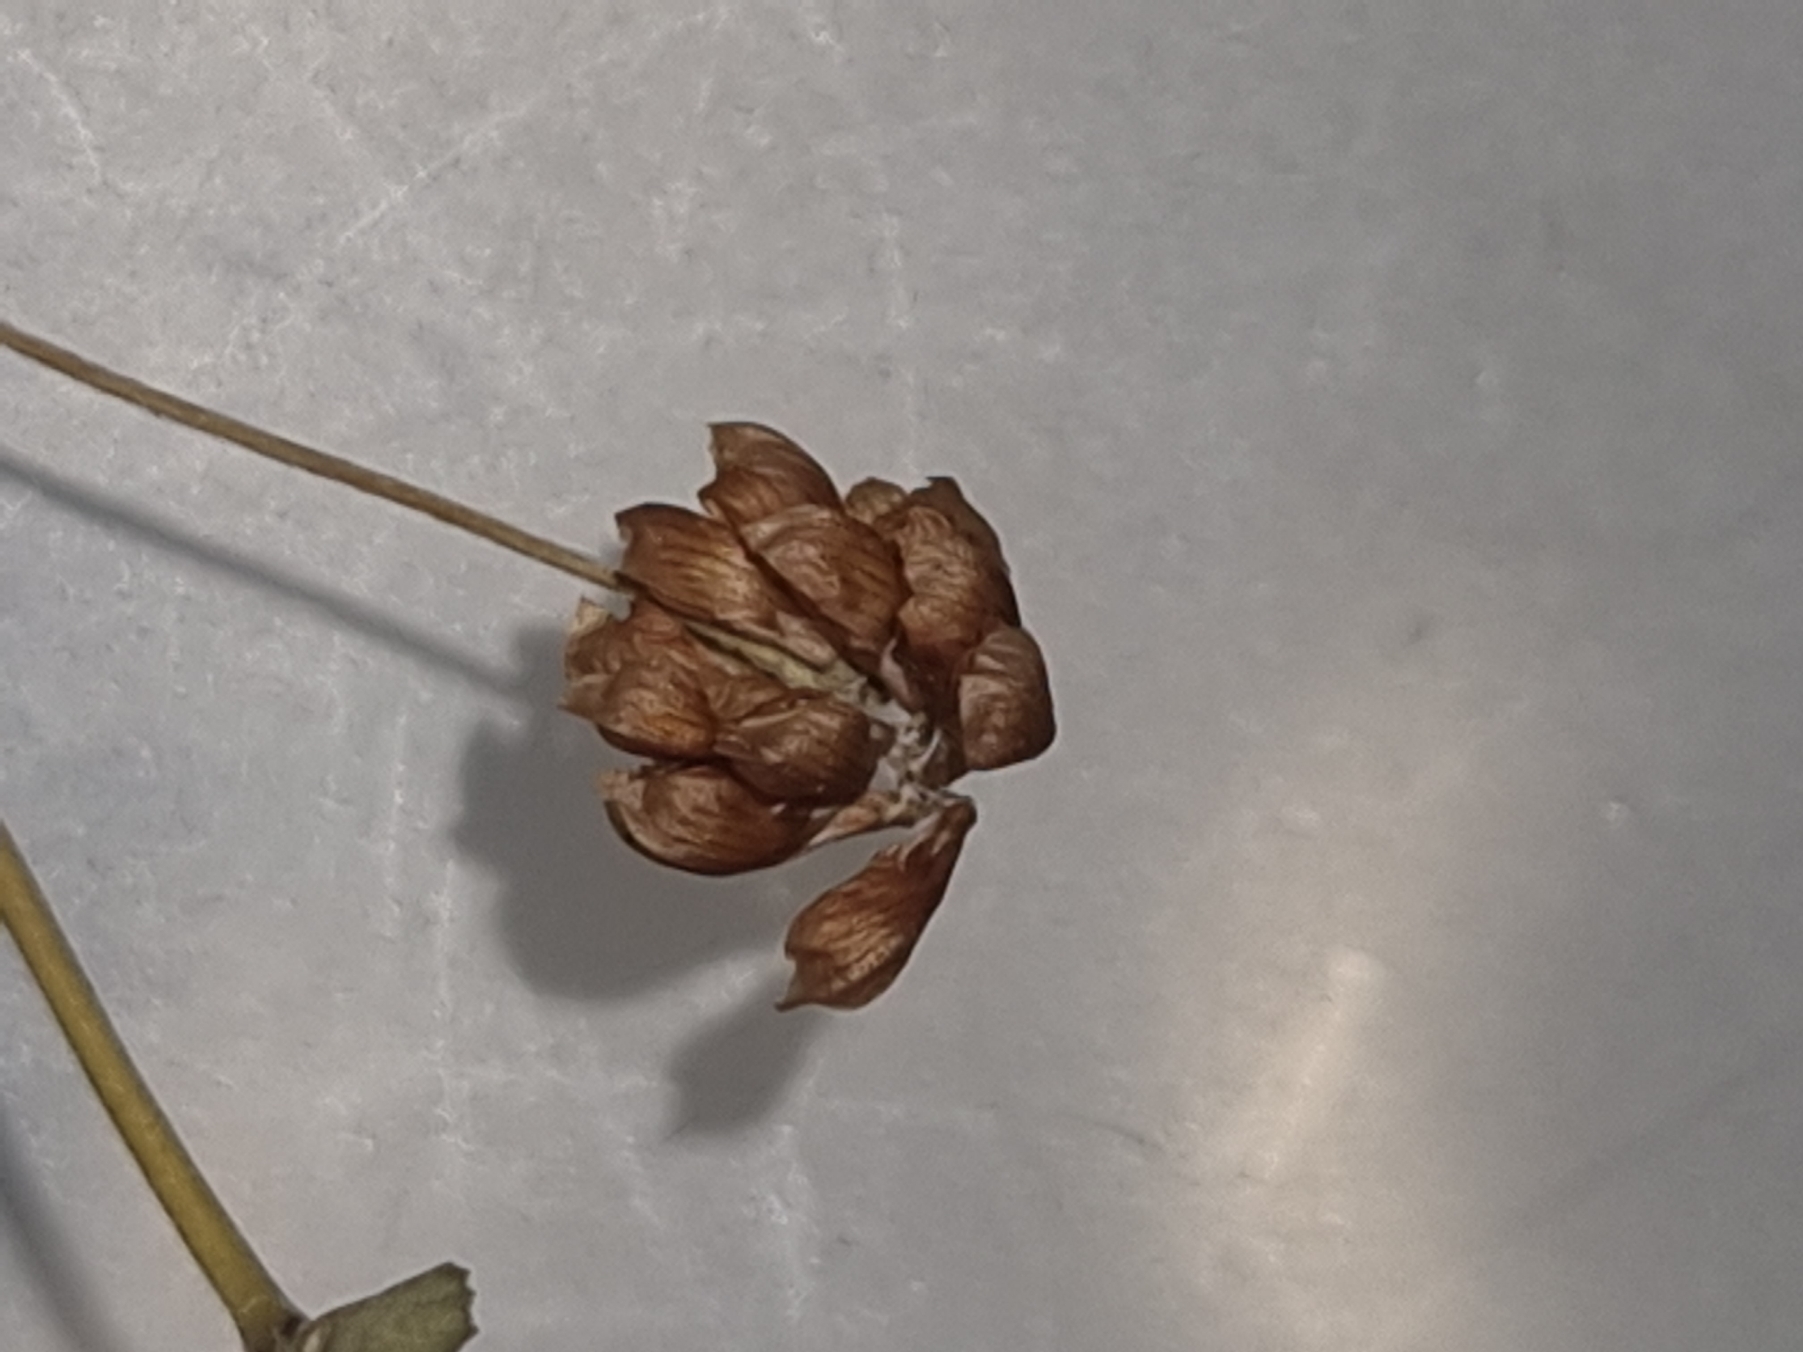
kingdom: Plantae
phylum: Tracheophyta
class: Magnoliopsida
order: Fabales
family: Fabaceae
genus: Trifolium
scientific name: Trifolium campestre
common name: Gul kløver
